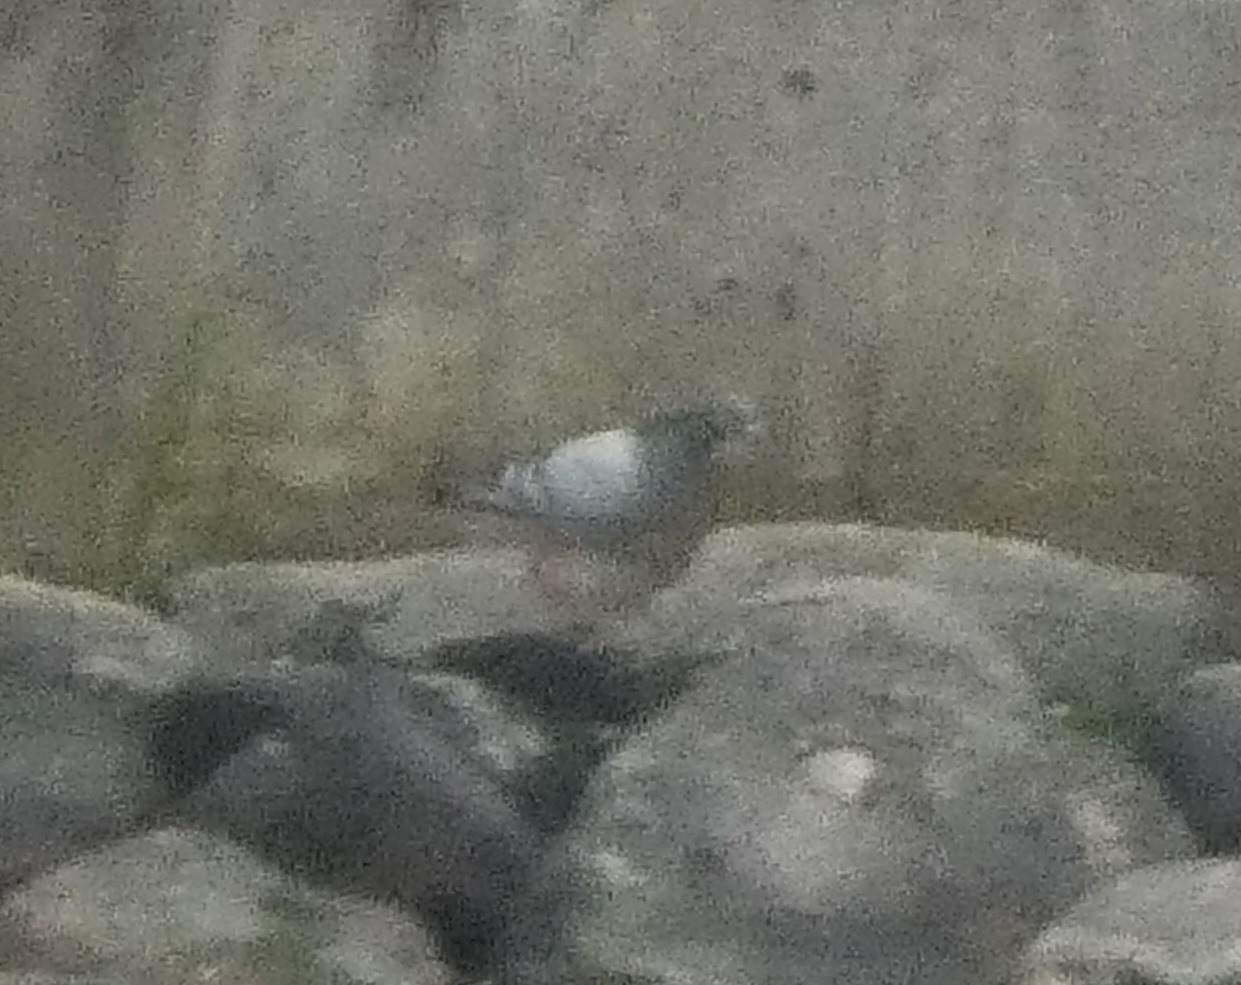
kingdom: Animalia
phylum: Chordata
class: Aves
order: Columbiformes
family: Columbidae
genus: Columba
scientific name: Columba livia
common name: Klippedue
